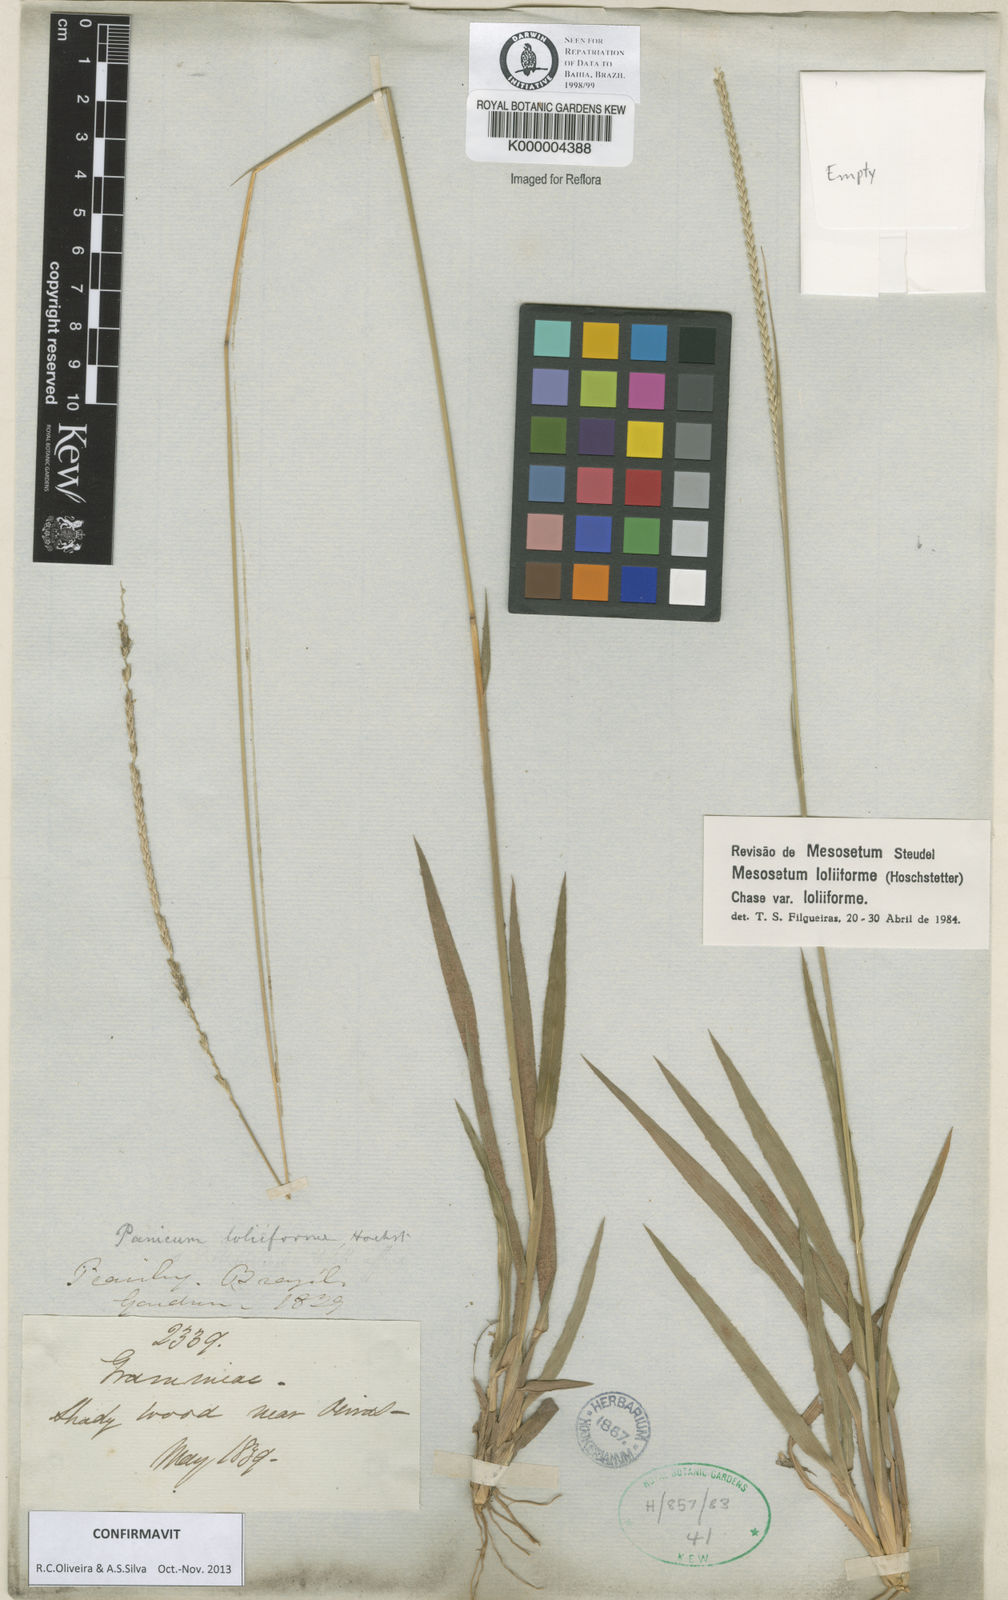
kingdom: Plantae
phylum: Tracheophyta
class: Liliopsida
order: Poales
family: Poaceae
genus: Mesosetum
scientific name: Mesosetum
